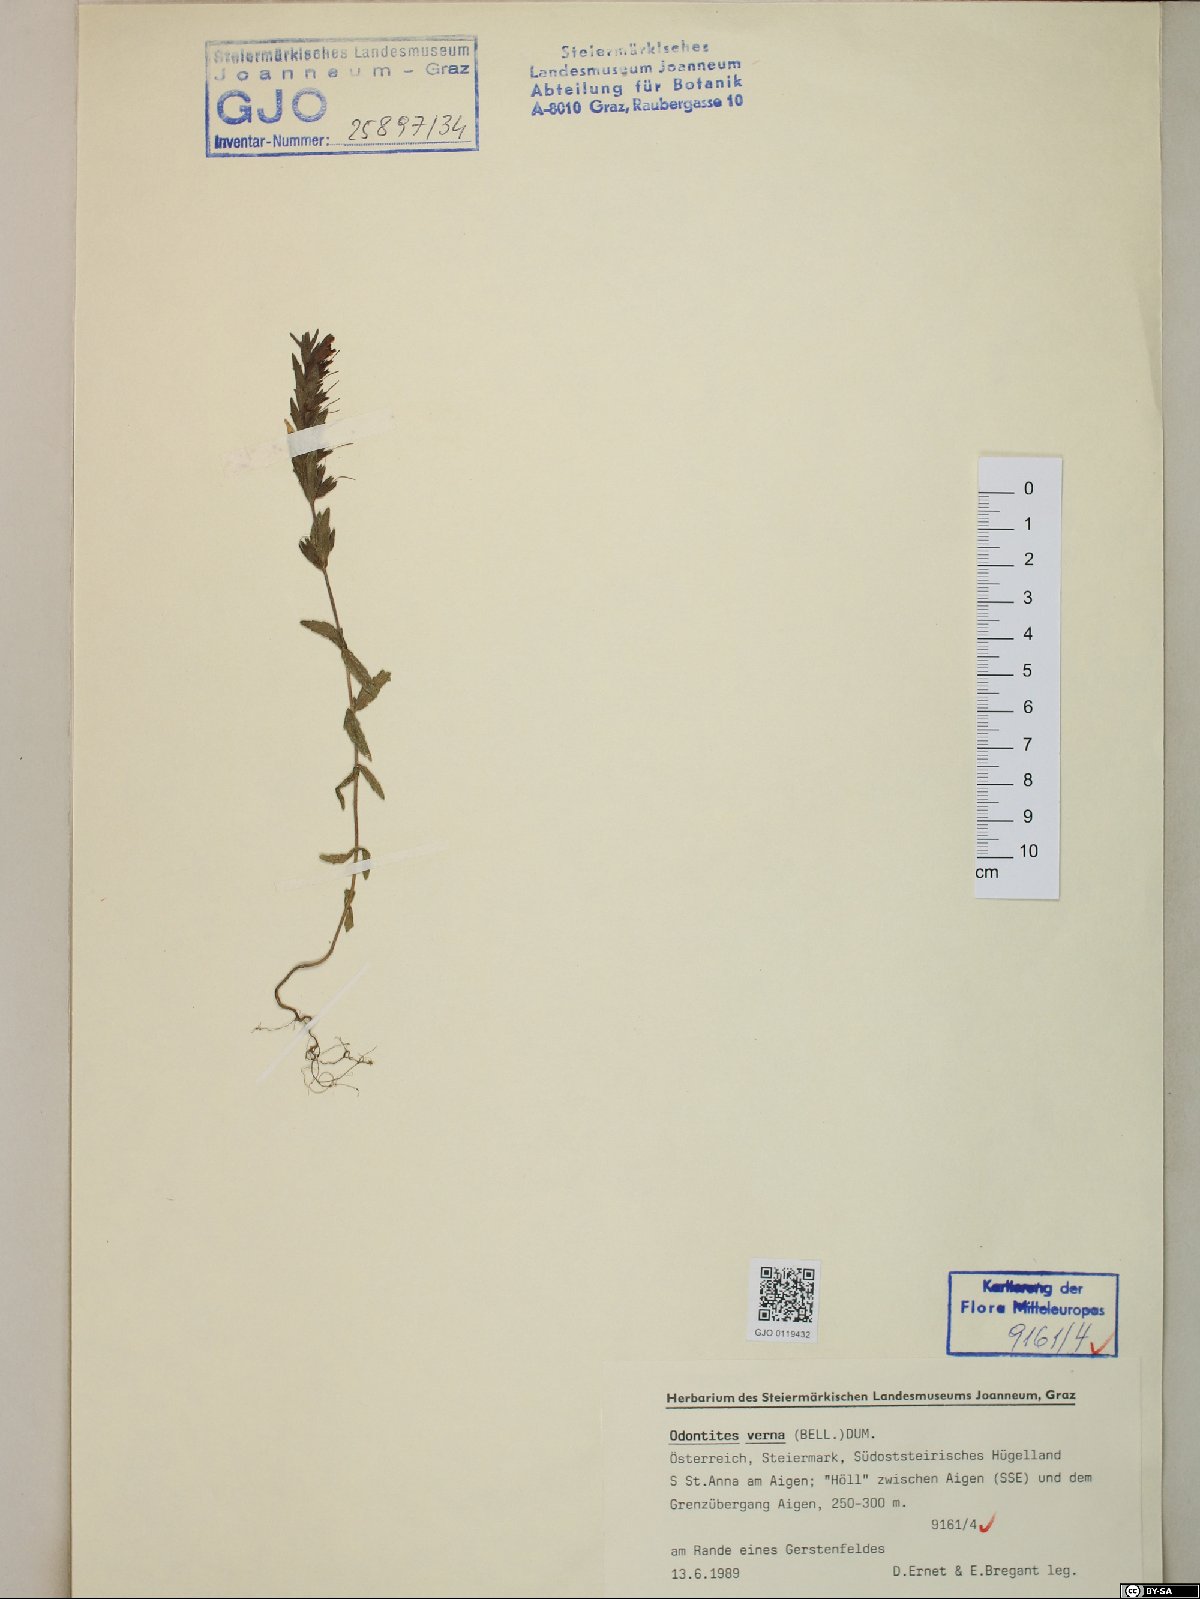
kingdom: Plantae
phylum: Tracheophyta
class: Magnoliopsida
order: Lamiales
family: Orobanchaceae
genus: Odontites
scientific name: Odontites vernus
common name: Red bartsia
